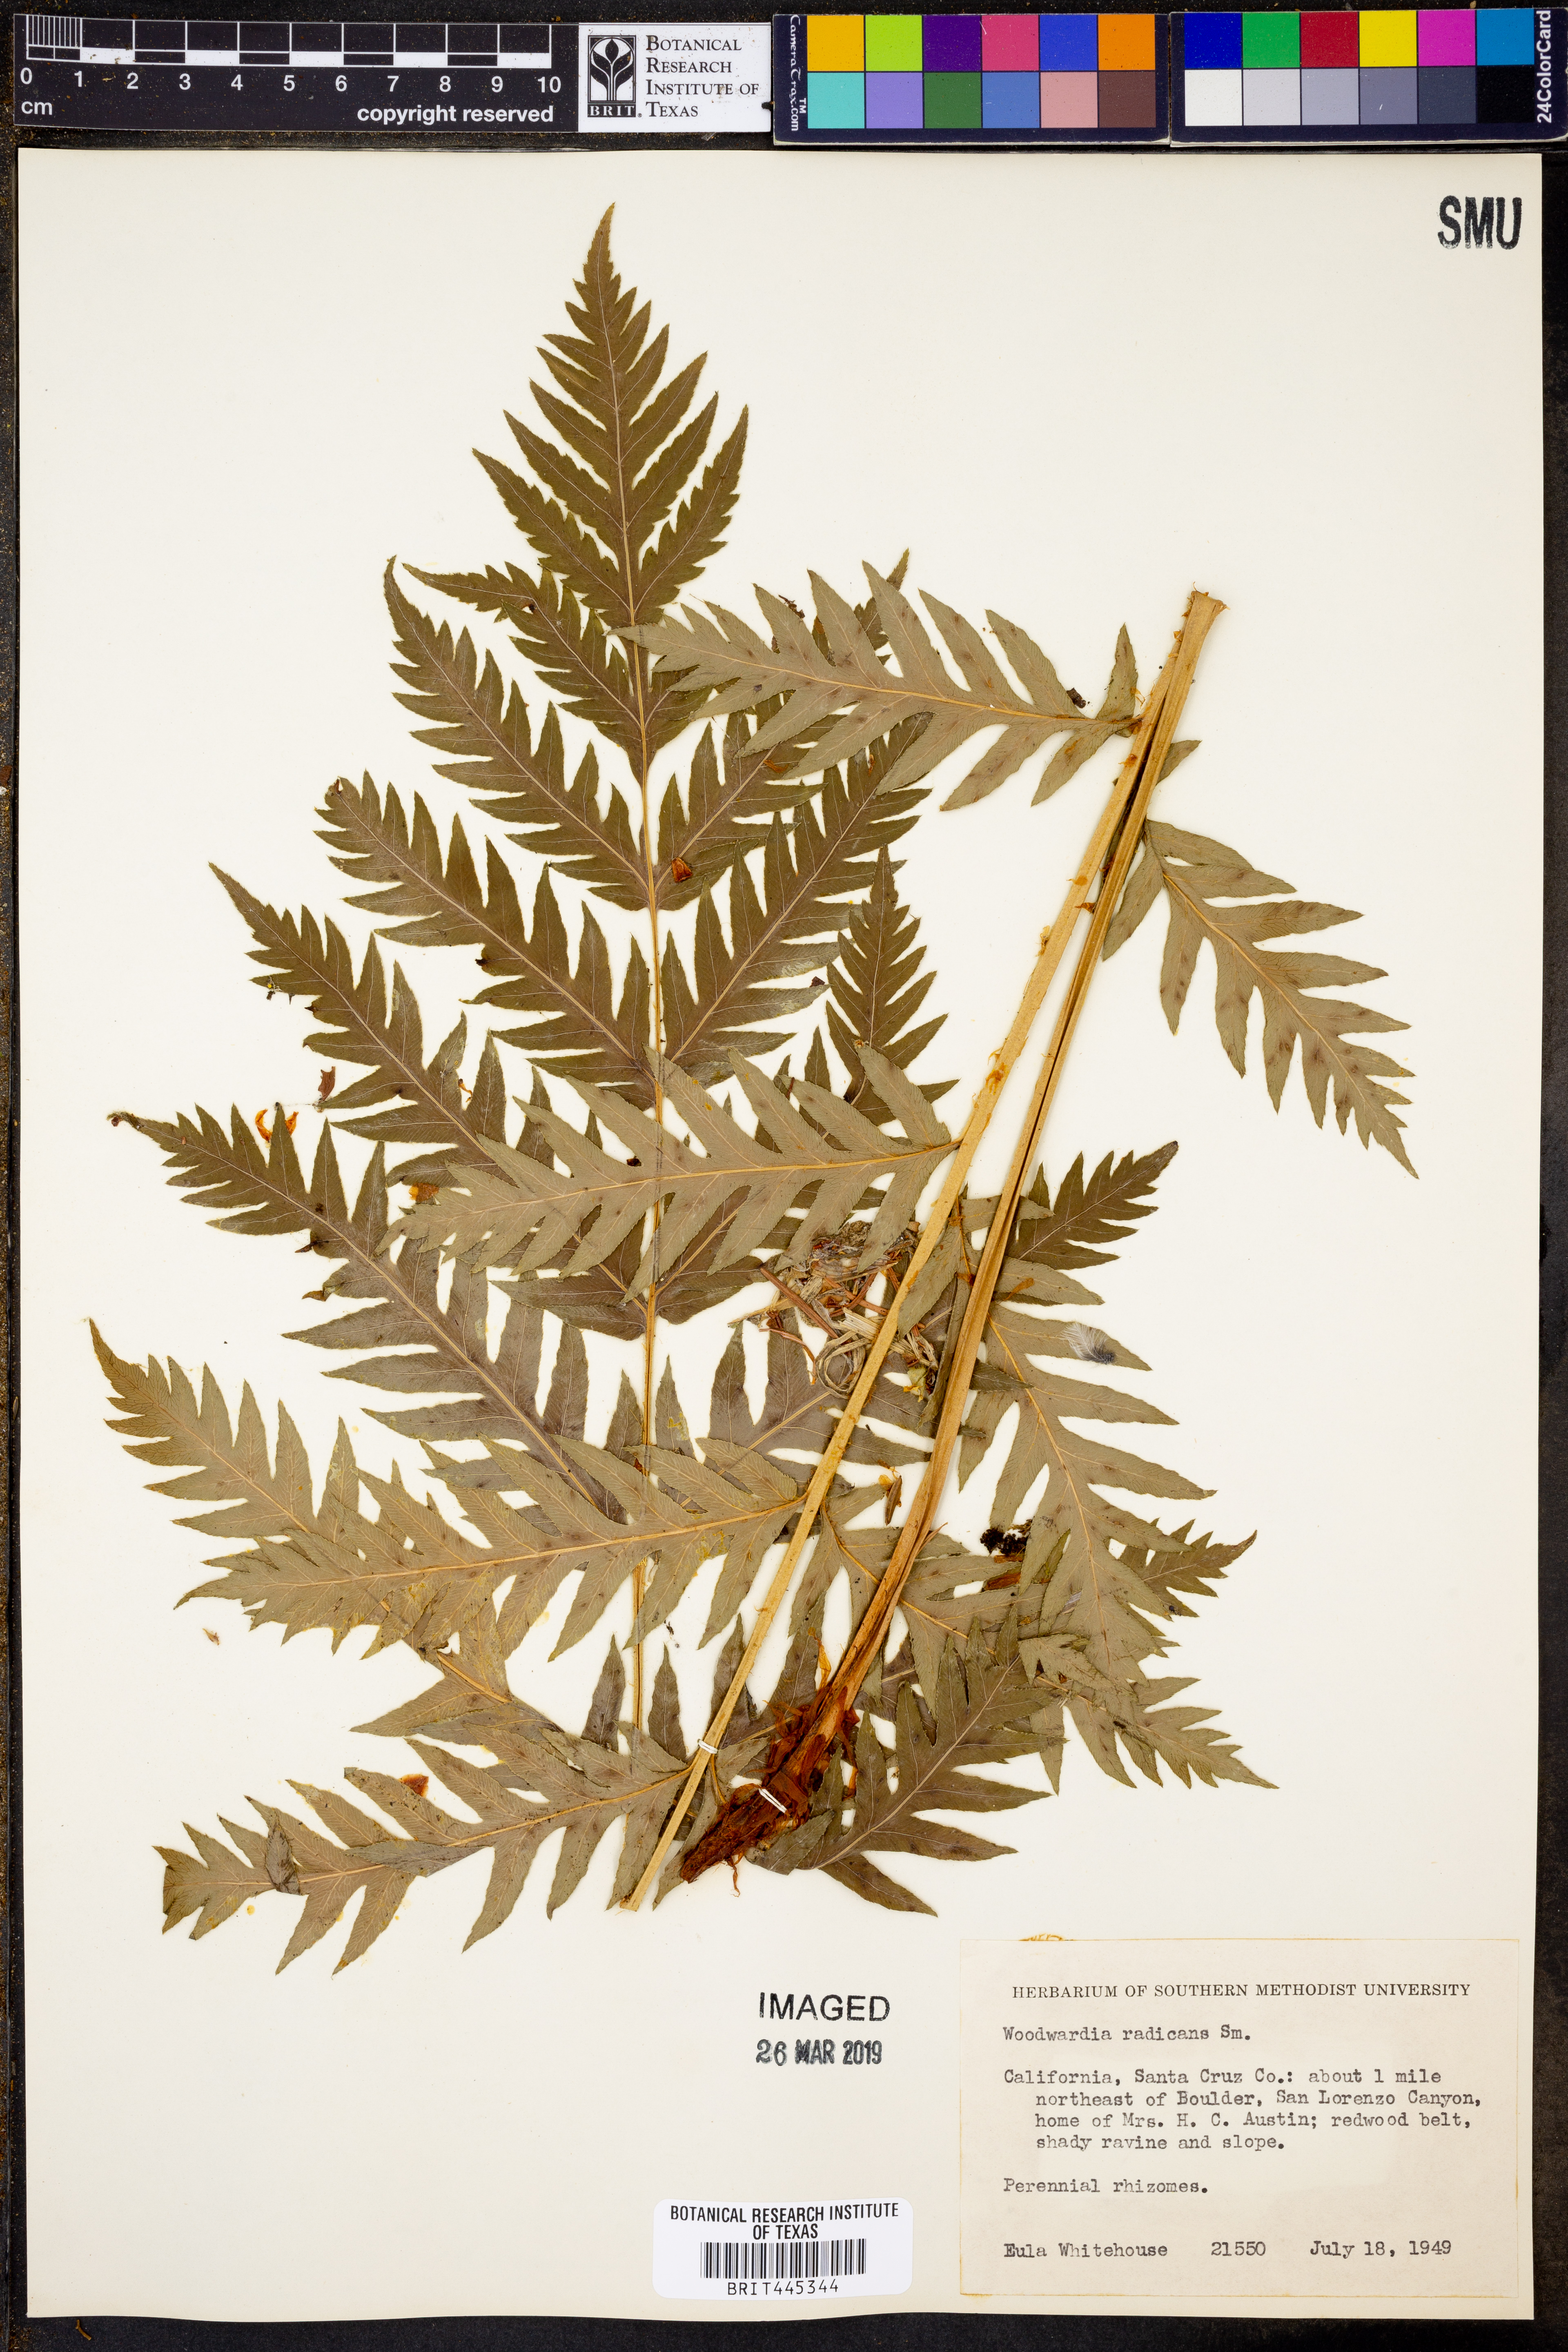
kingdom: Plantae
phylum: Tracheophyta
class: Polypodiopsida
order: Polypodiales
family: Blechnaceae
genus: Woodwardia
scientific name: Woodwardia radicans
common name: Rooting chainfern
